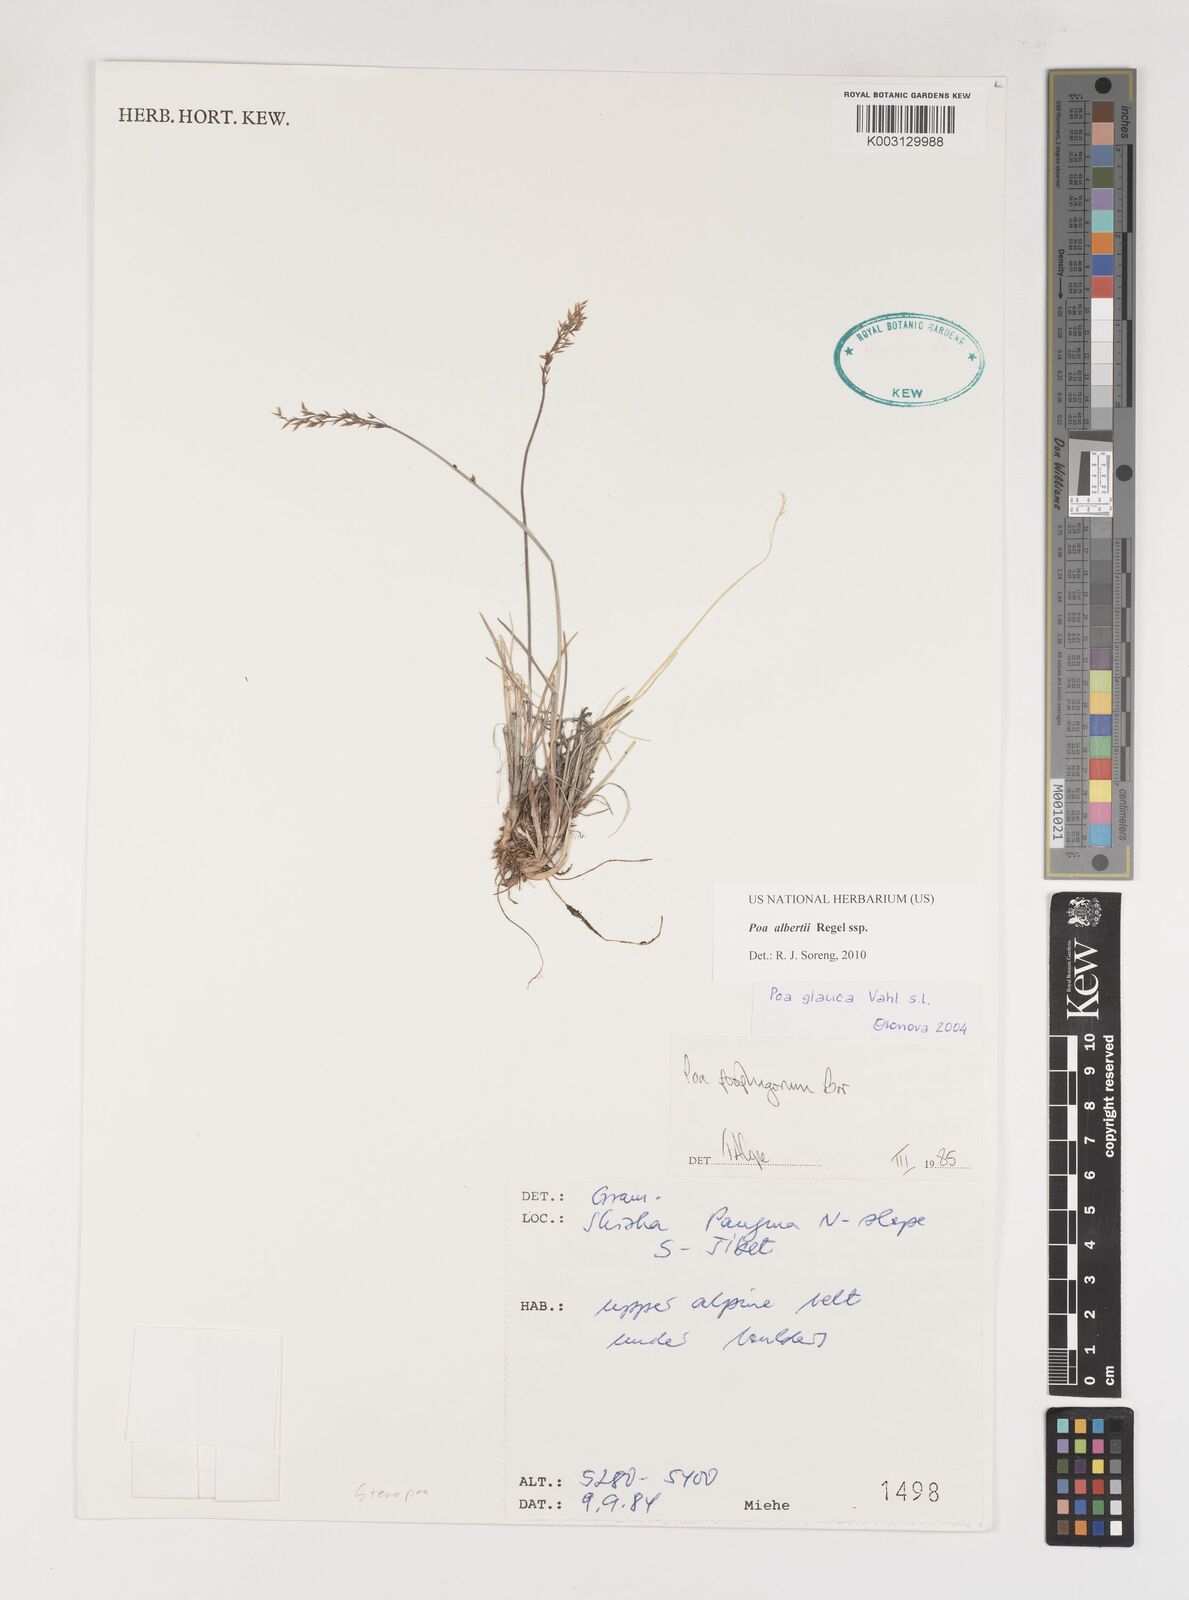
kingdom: Plantae
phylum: Tracheophyta
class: Liliopsida
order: Poales
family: Poaceae
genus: Poa
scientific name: Poa alberti
